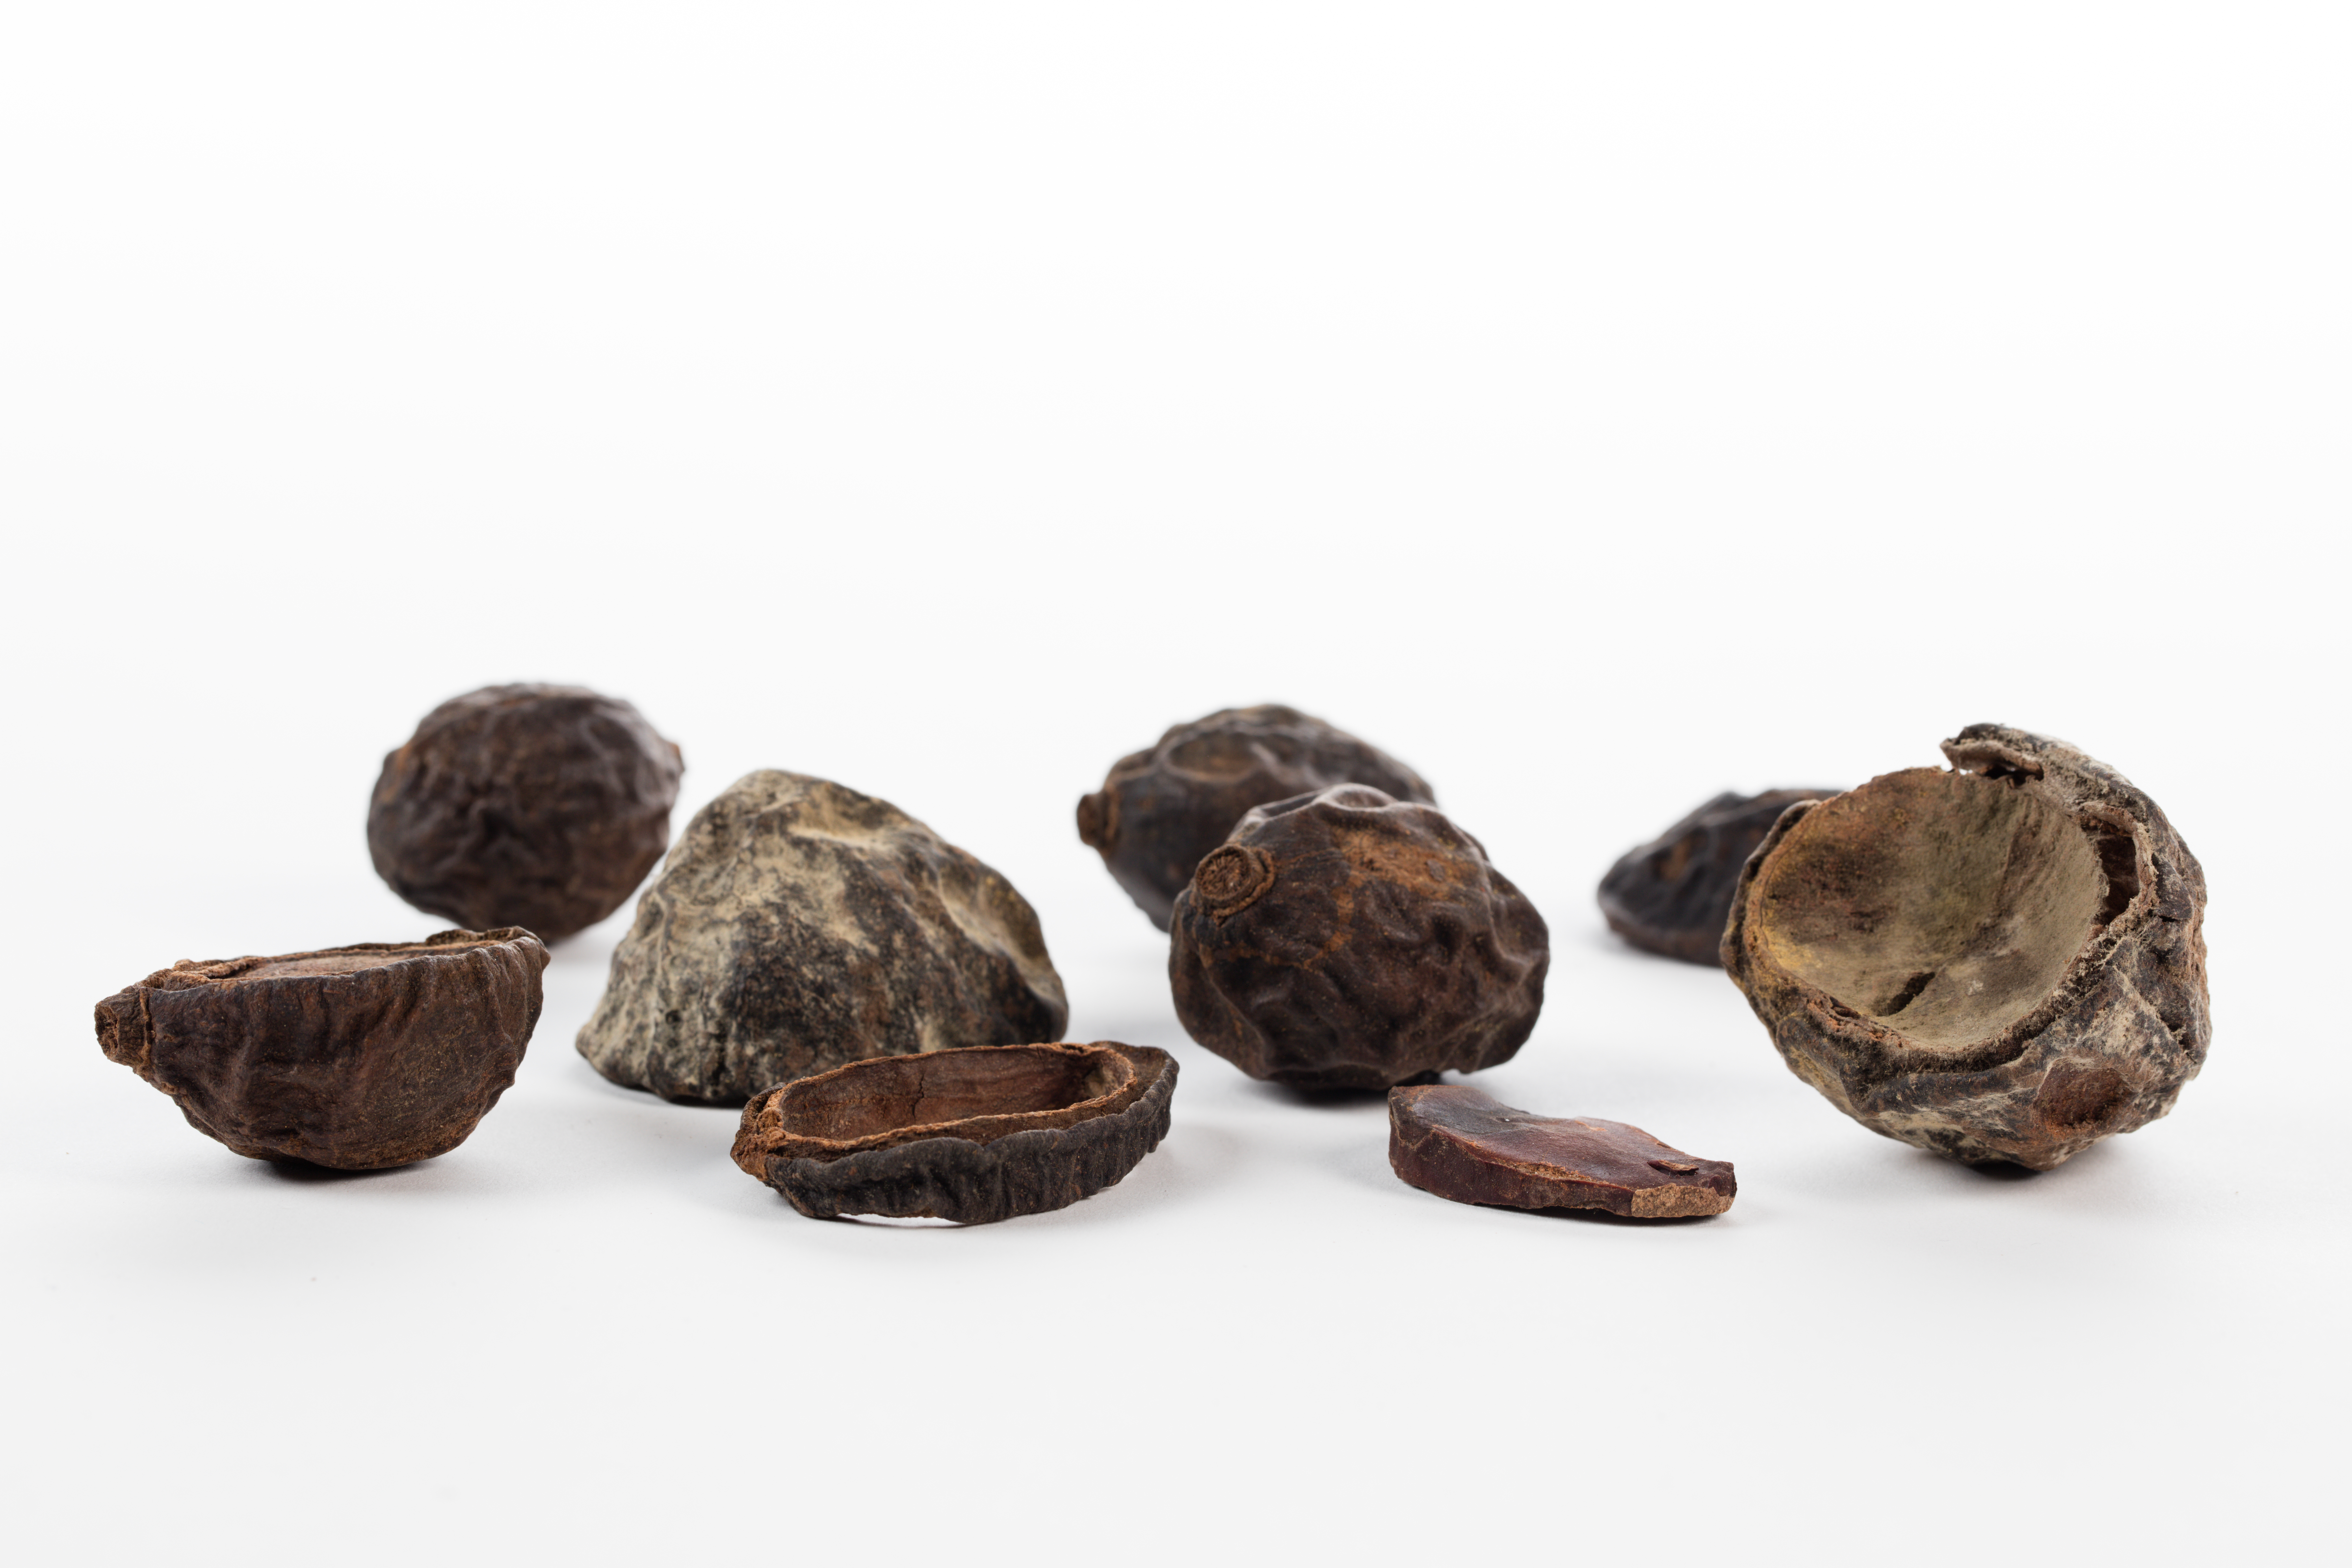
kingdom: Plantae
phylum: Tracheophyta
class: Magnoliopsida
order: Laurales
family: Lauraceae
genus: Endiandra
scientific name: Endiandra grandifolia
